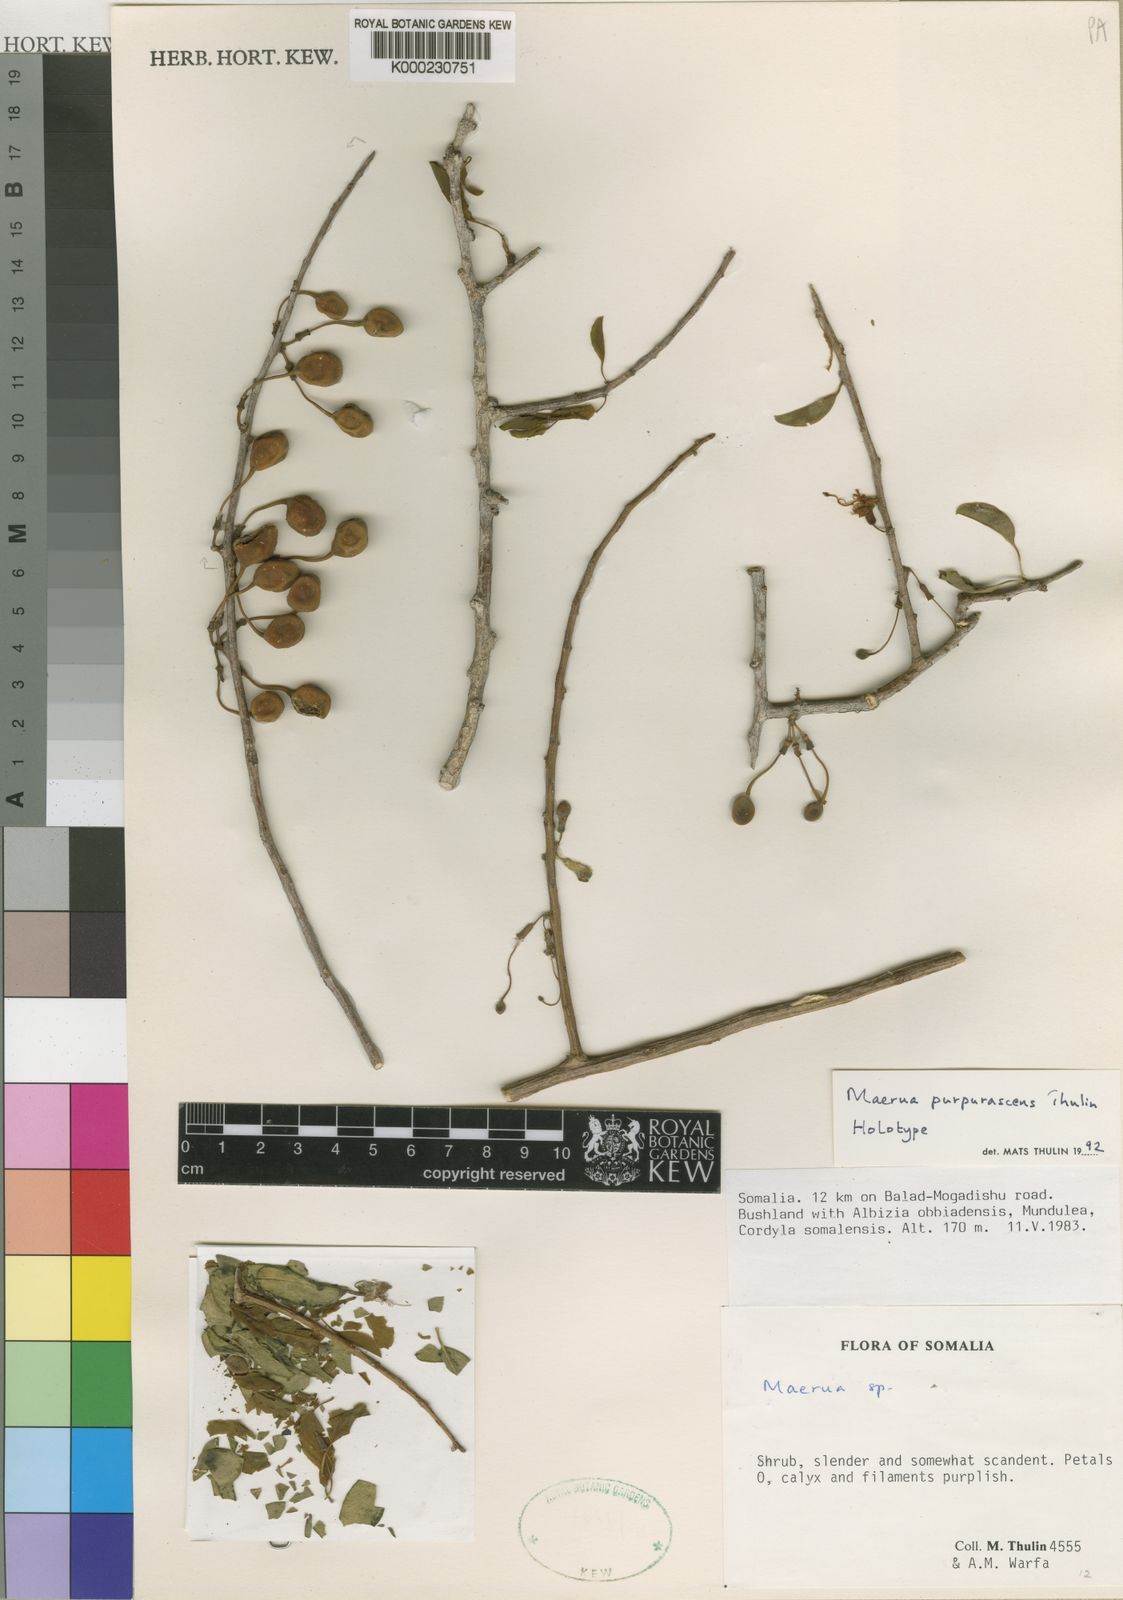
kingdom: Plantae
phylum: Tracheophyta
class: Magnoliopsida
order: Brassicales
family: Capparaceae
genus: Maerua
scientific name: Maerua
